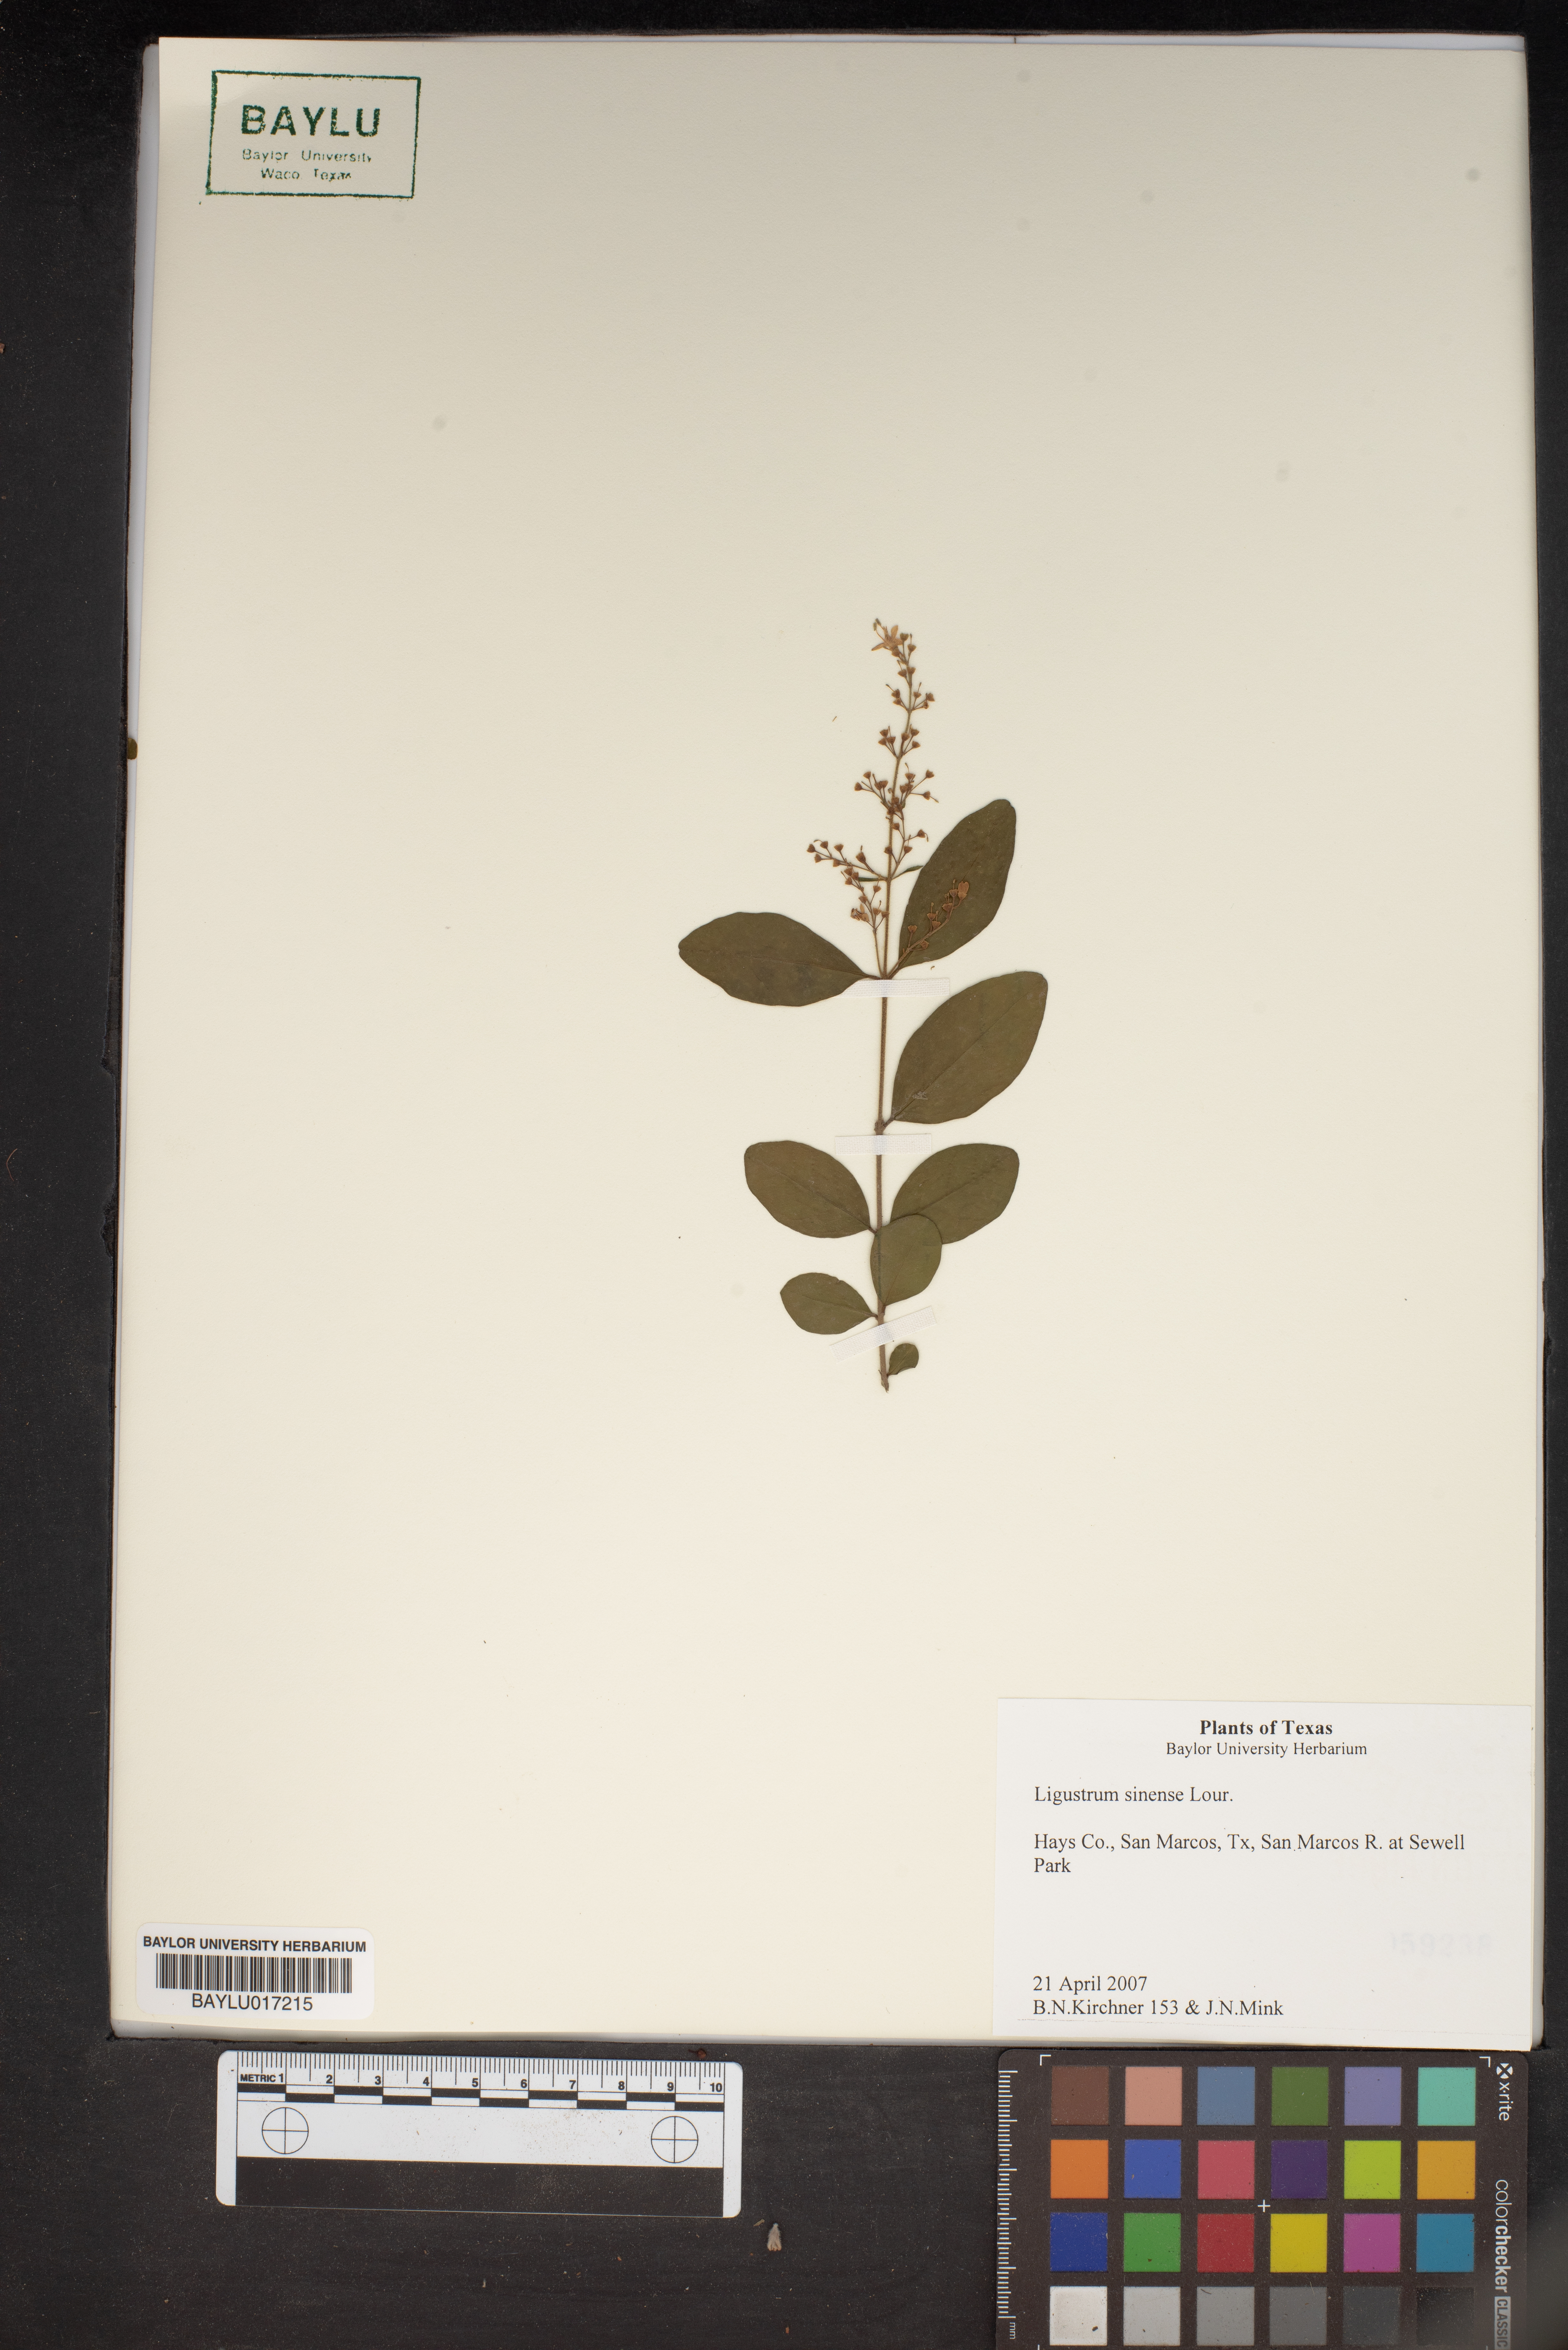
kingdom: Plantae
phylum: Tracheophyta
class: Magnoliopsida
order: Lamiales
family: Oleaceae
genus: Ligustrum
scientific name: Ligustrum sinense
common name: Chinese privet
